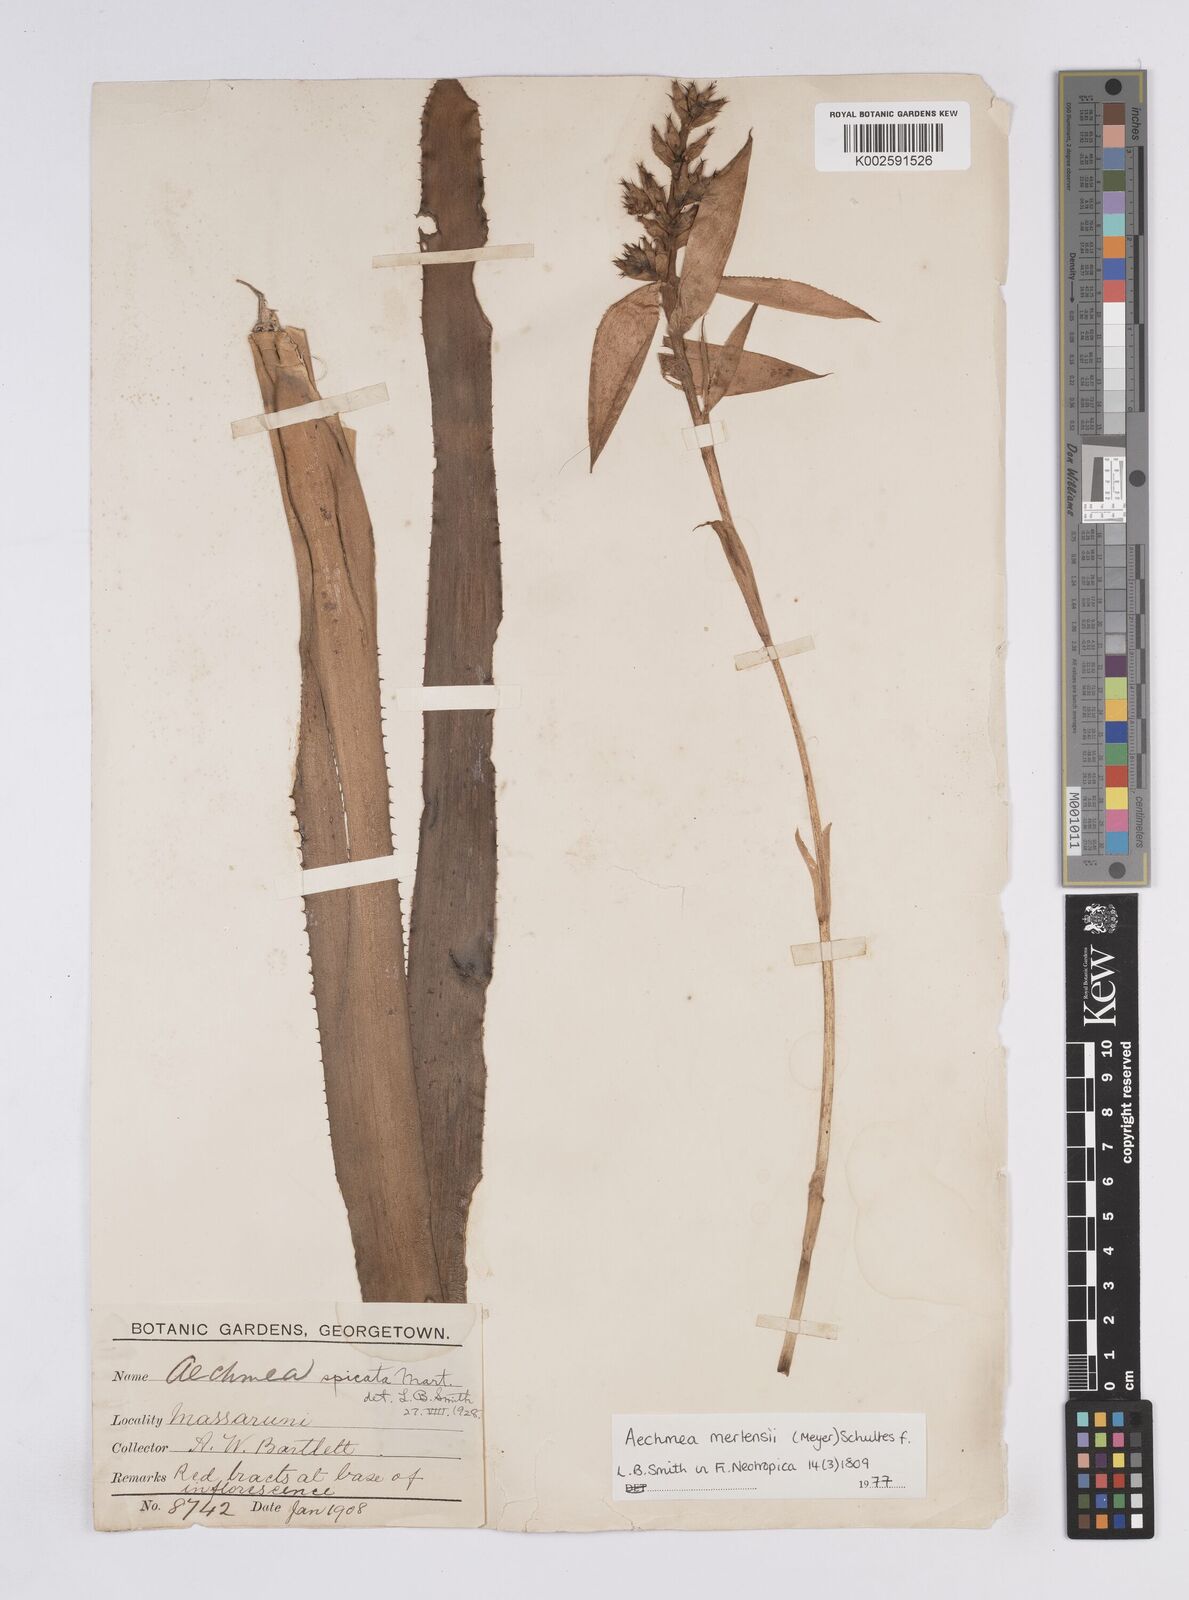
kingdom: Plantae
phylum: Tracheophyta
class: Liliopsida
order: Poales
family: Bromeliaceae
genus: Aechmea
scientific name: Aechmea mertensii
